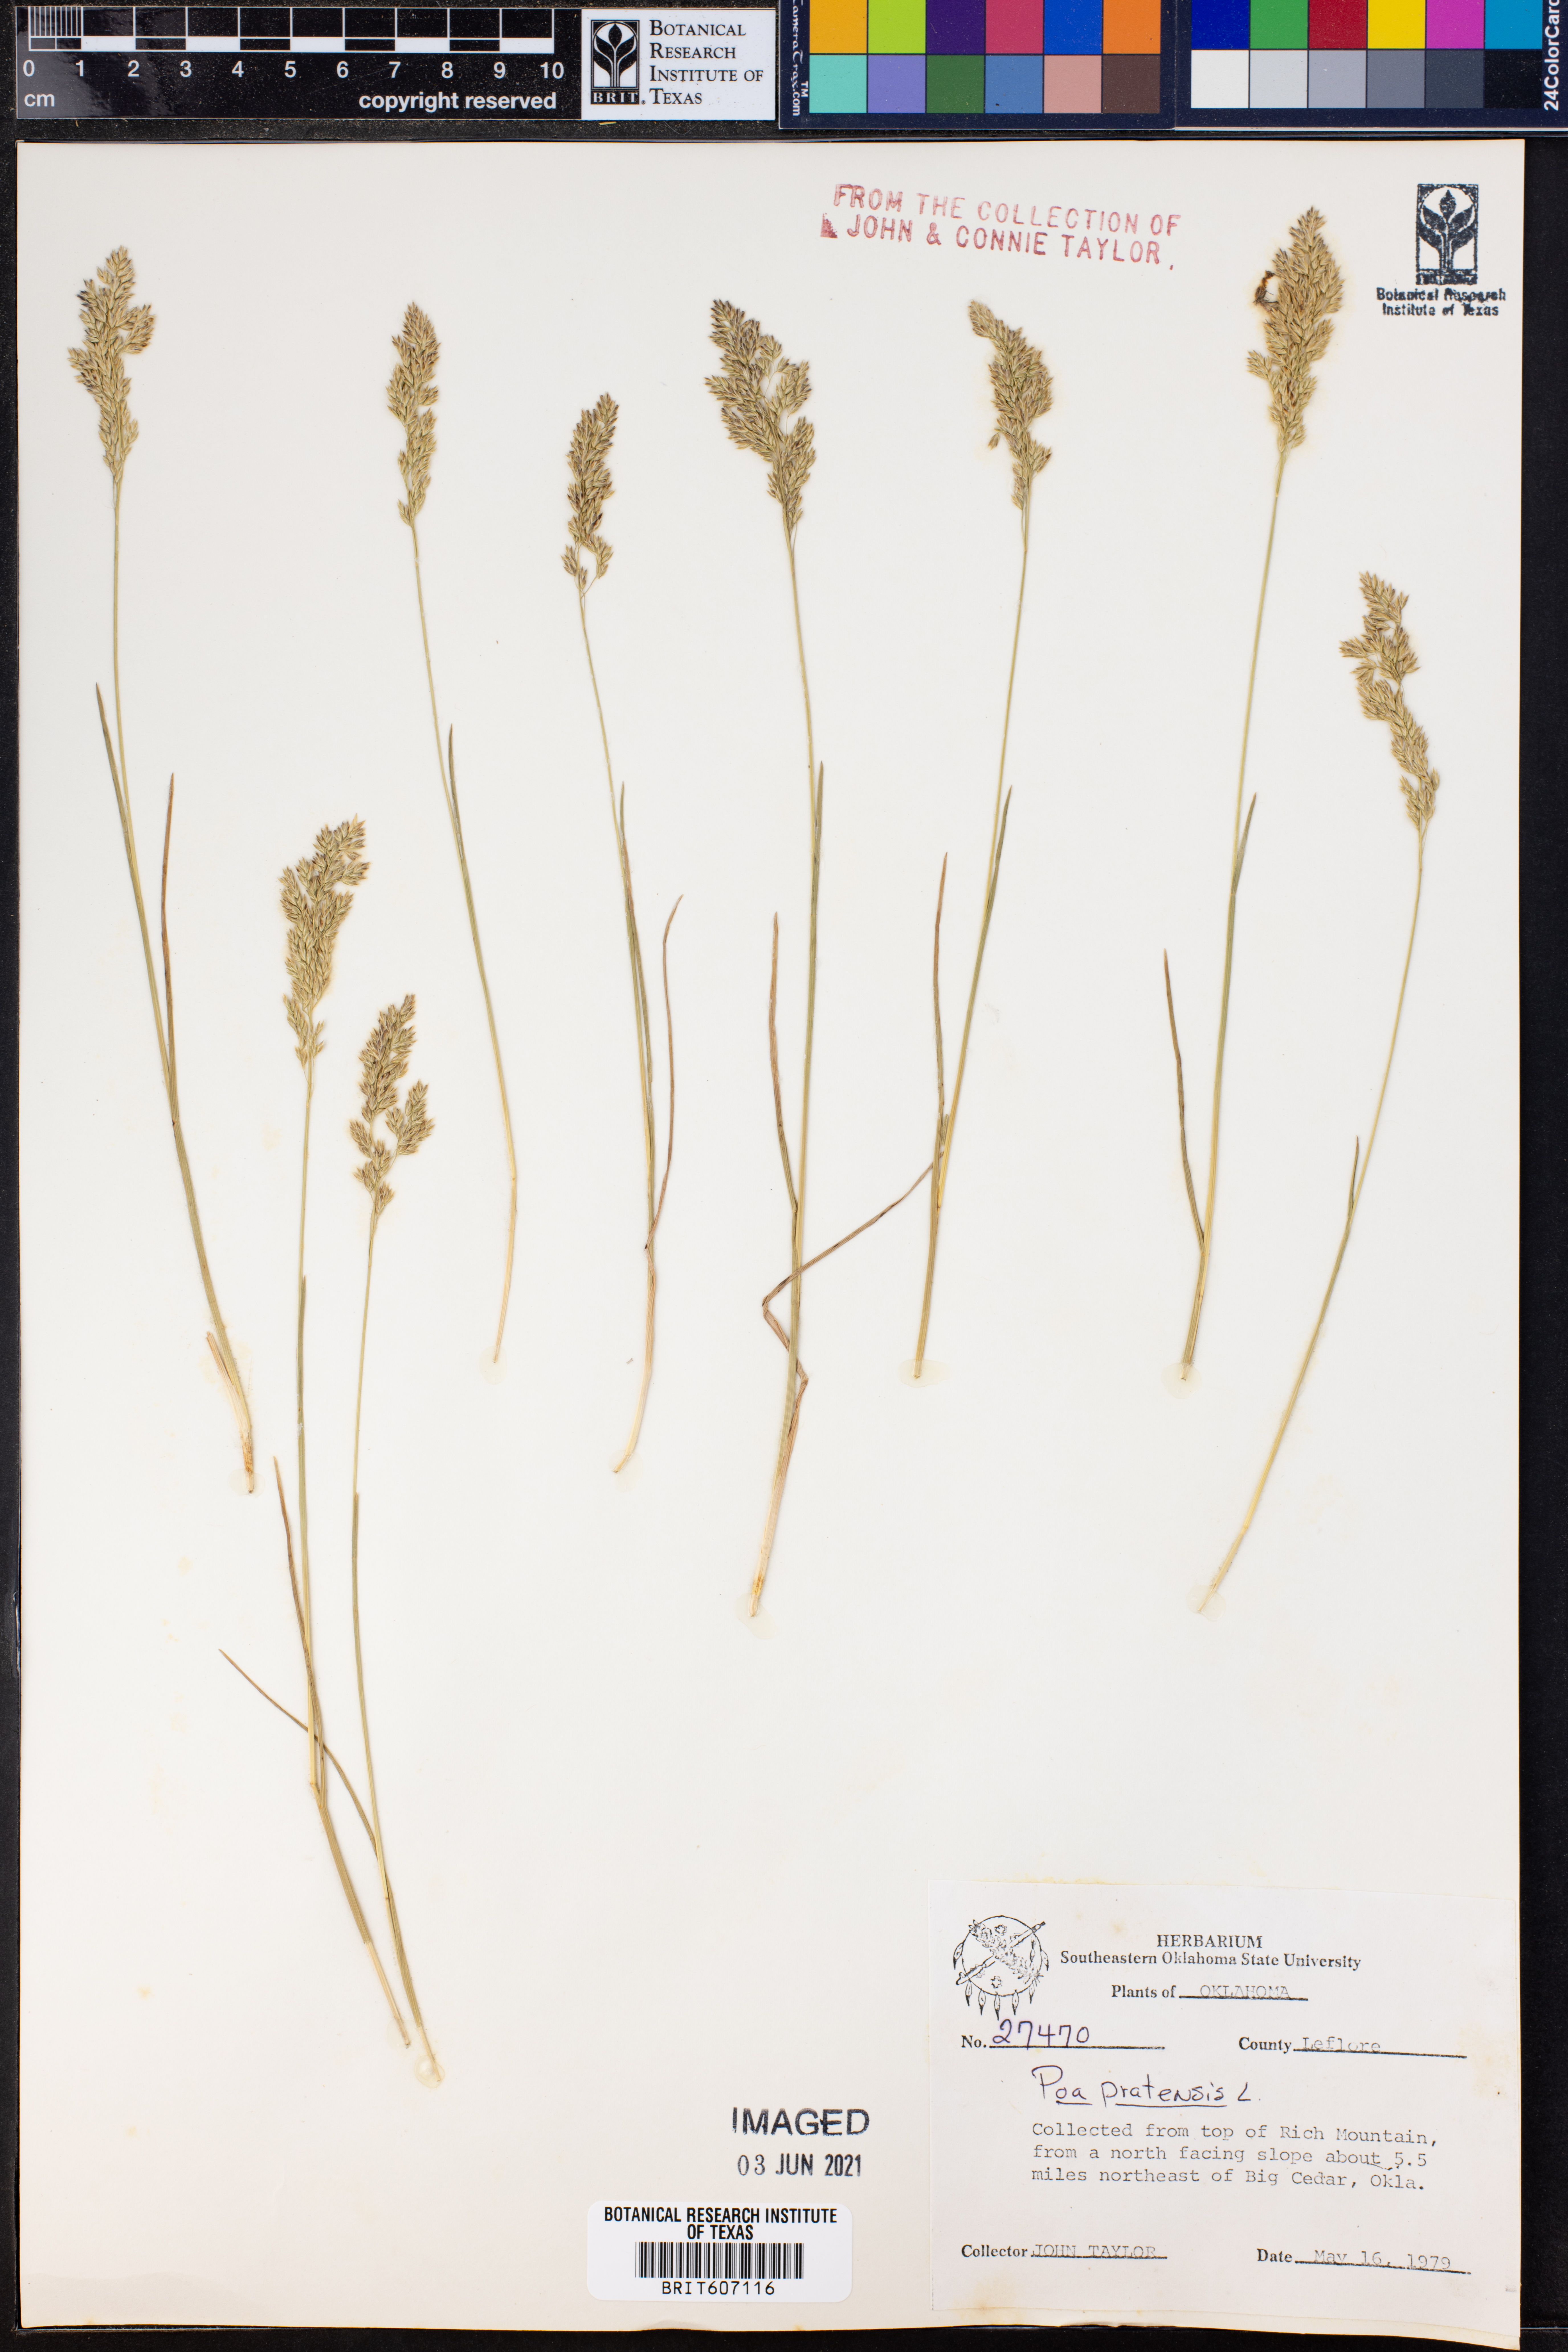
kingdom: Plantae
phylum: Tracheophyta
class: Liliopsida
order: Poales
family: Poaceae
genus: Poa
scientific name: Poa pratensis
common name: Kentucky bluegrass
